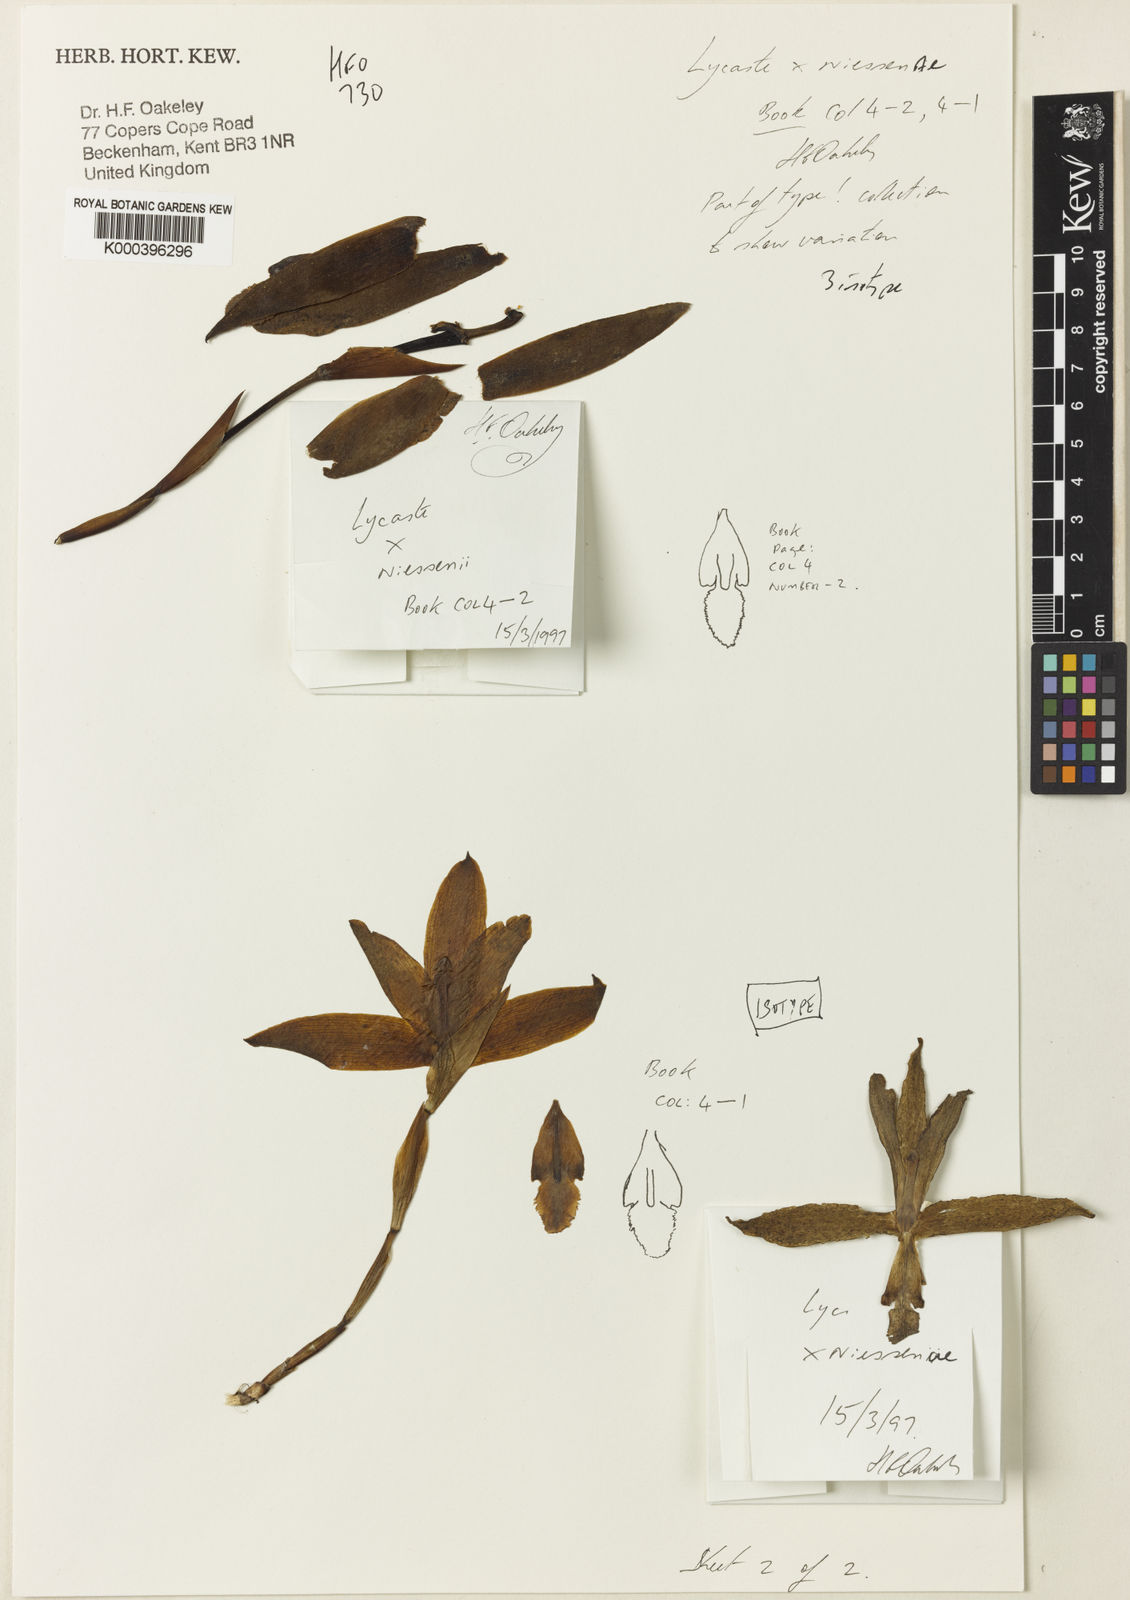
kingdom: Plantae
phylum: Tracheophyta
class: Liliopsida
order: Asparagales
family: Orchidaceae
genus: Lycaste
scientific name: Lycaste niesseniae
